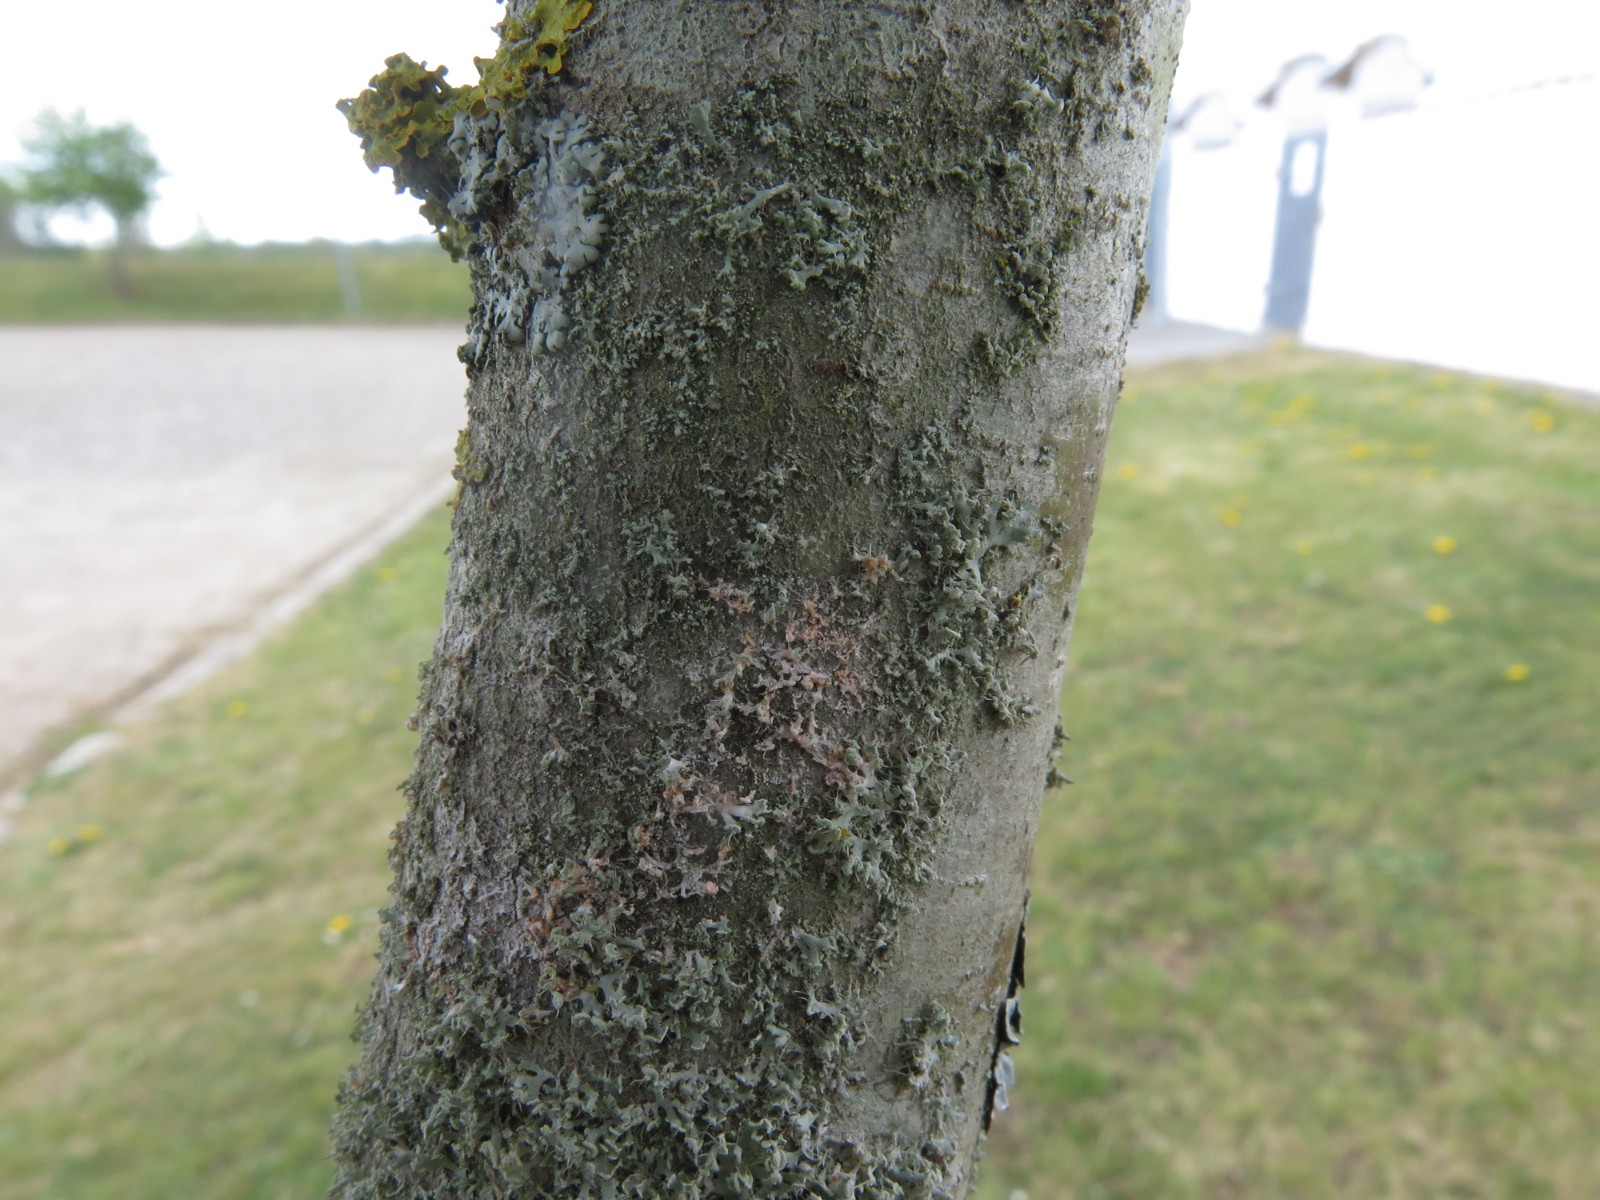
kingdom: Fungi
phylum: Basidiomycota
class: Agaricomycetes
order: Corticiales
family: Corticiaceae
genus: Erythricium
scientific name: Erythricium aurantiacum
